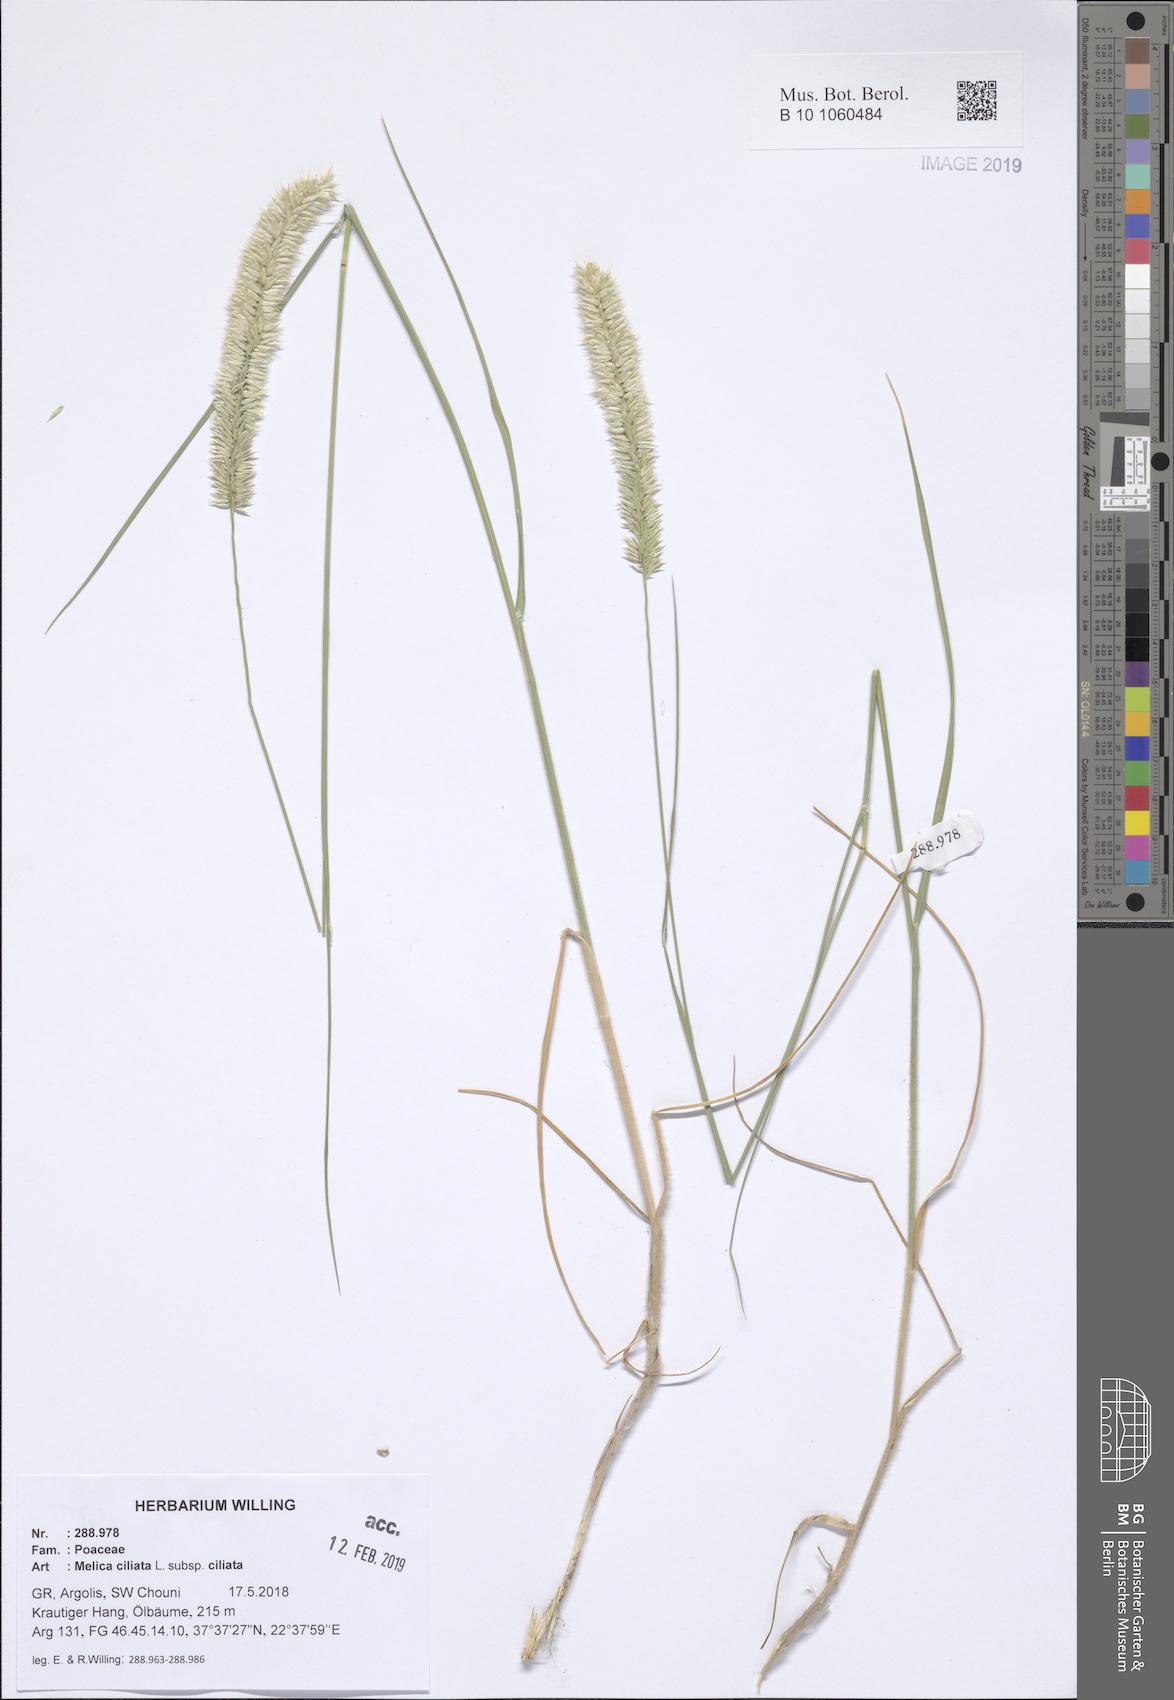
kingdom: Plantae
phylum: Tracheophyta
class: Liliopsida
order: Poales
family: Poaceae
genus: Melica
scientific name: Melica ciliata
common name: Hairy melicgrass
